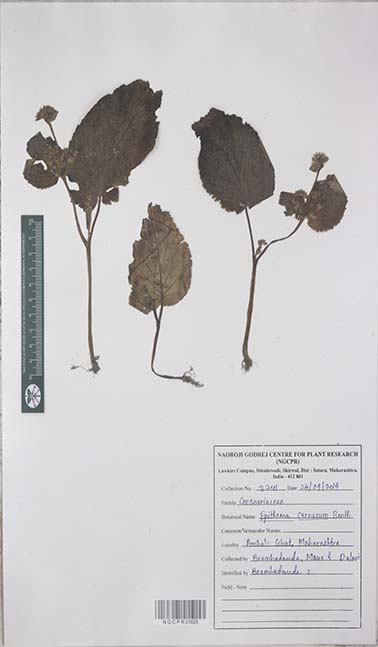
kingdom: Plantae
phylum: Tracheophyta
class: Magnoliopsida
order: Lamiales
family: Gesneriaceae
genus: Epithema
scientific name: Epithema carnosum
